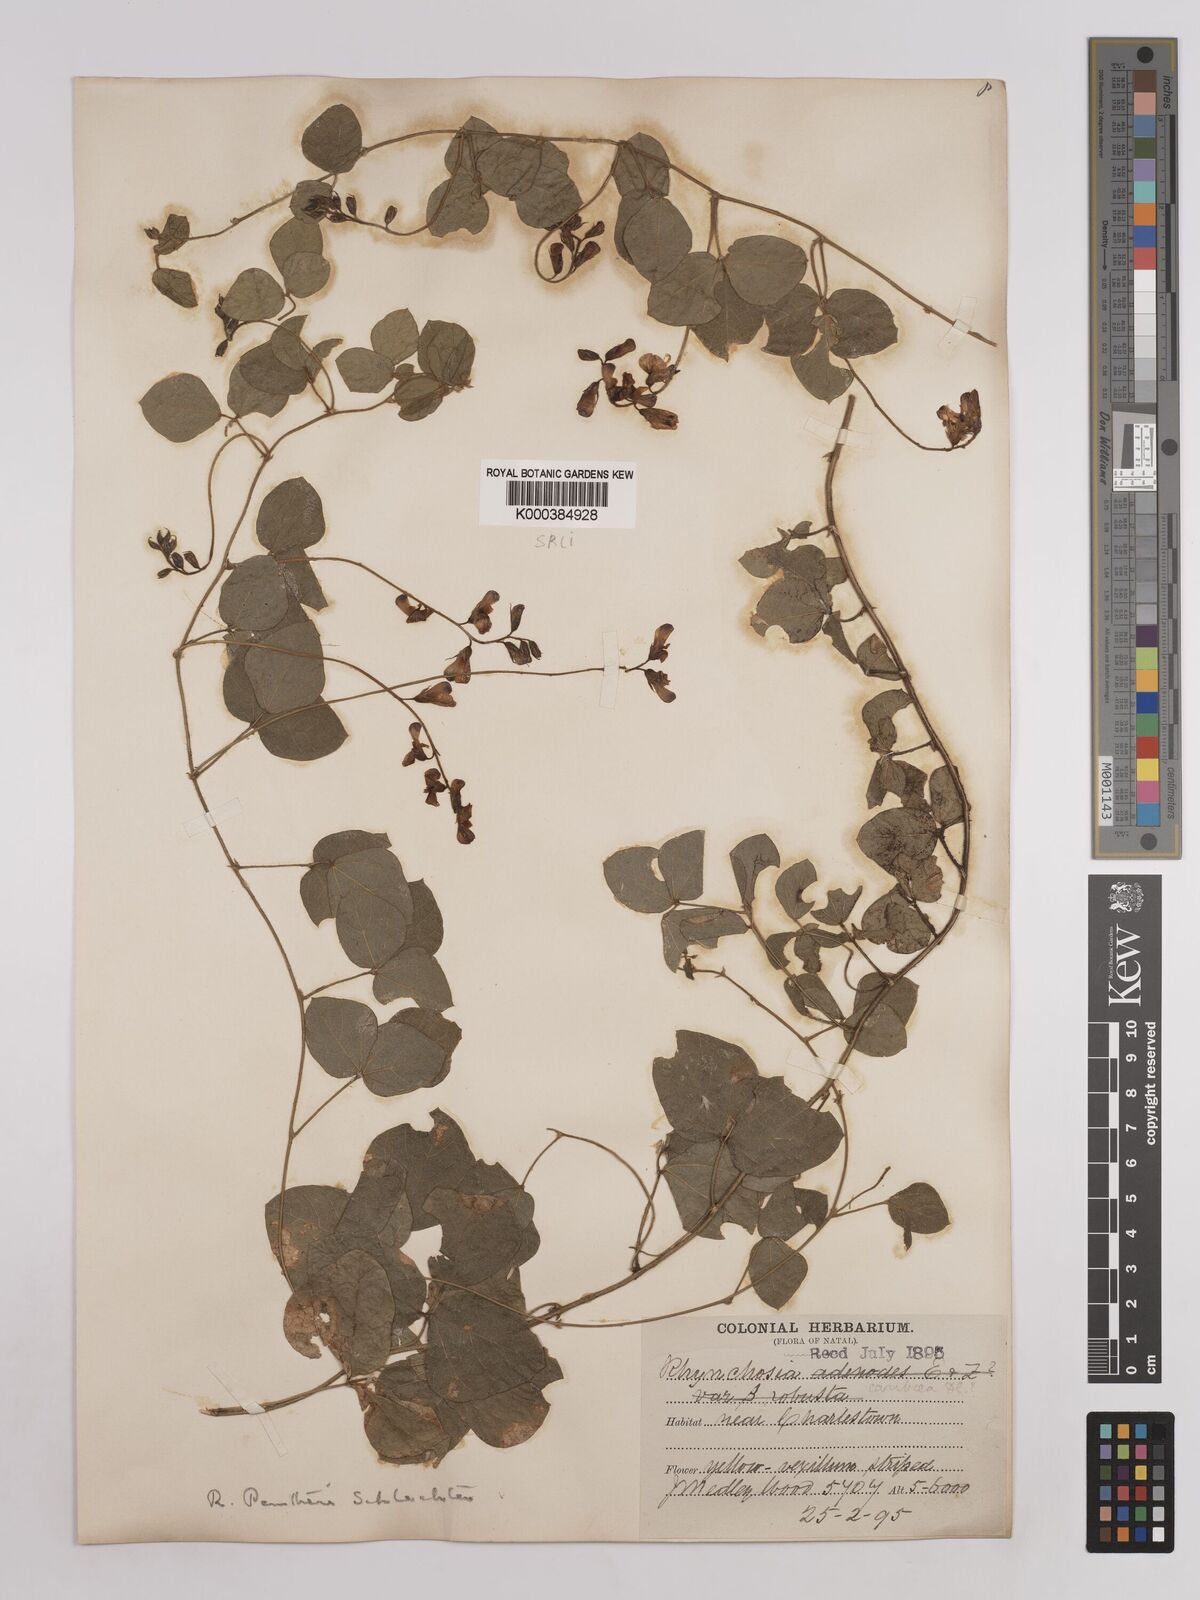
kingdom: Plantae
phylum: Tracheophyta
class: Magnoliopsida
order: Fabales
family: Fabaceae
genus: Rhynchosia
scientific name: Rhynchosia pentheri
